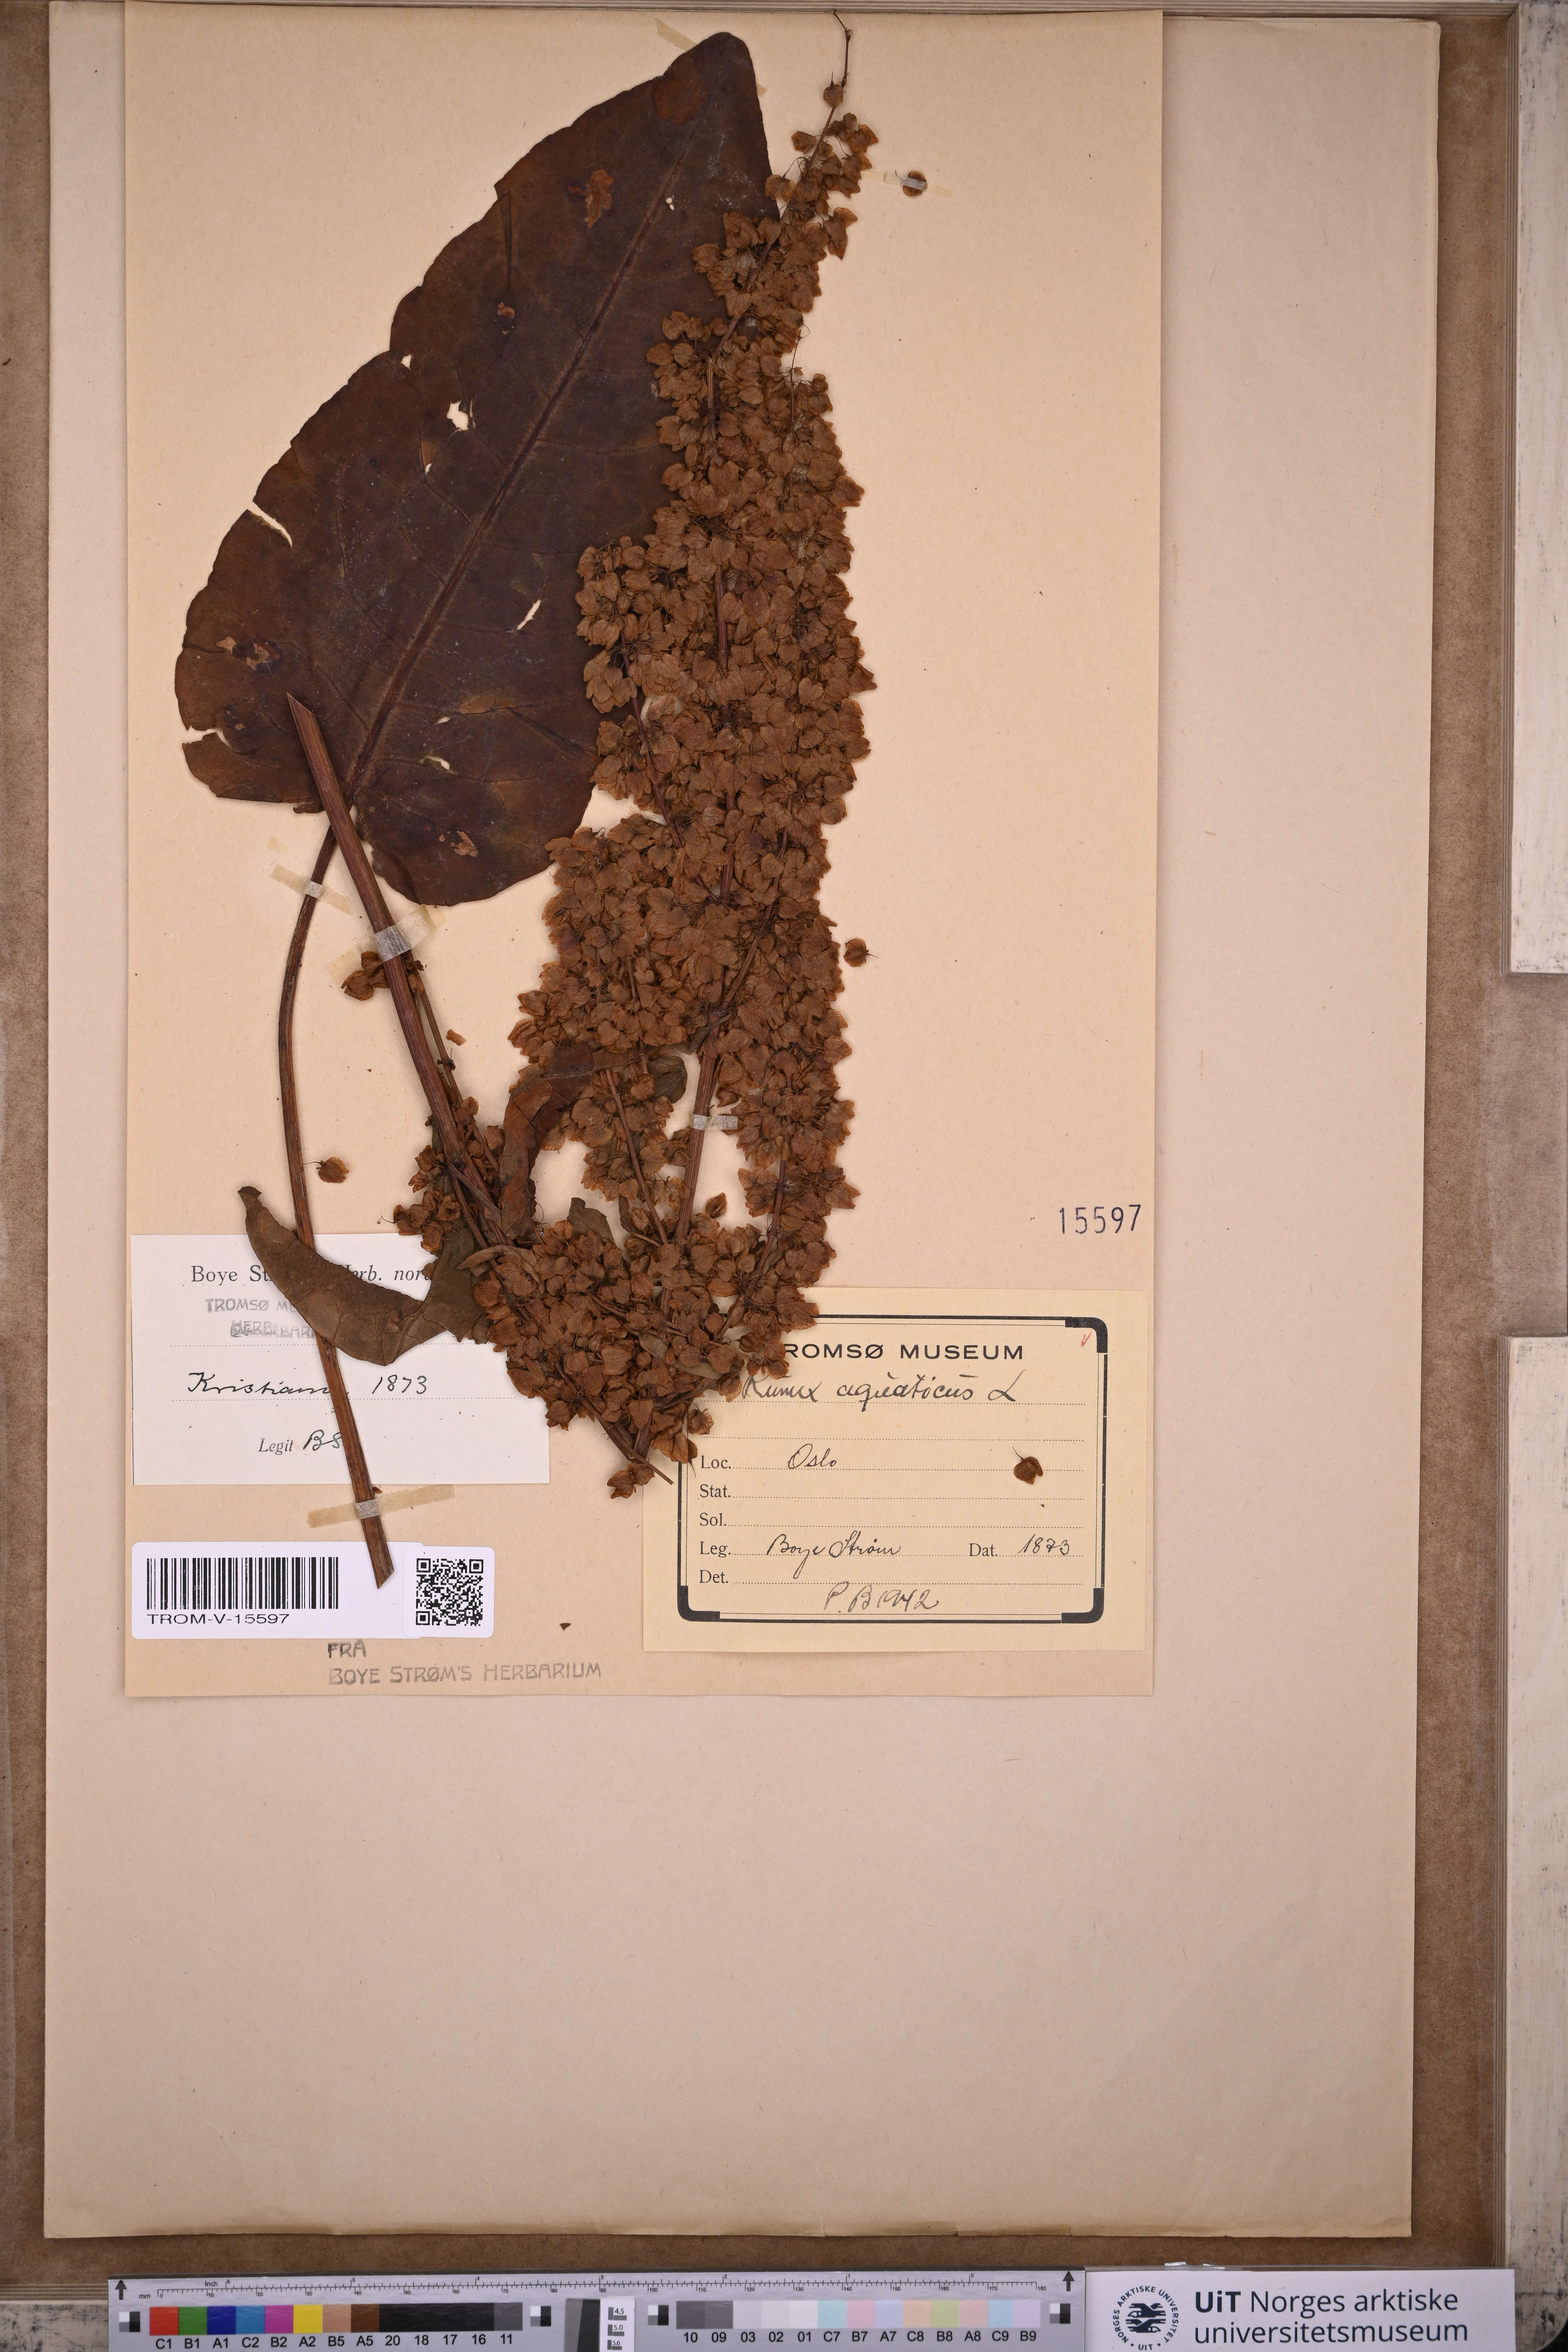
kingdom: Plantae
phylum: Tracheophyta
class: Magnoliopsida
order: Caryophyllales
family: Polygonaceae
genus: Rumex
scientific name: Rumex aquaticus
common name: Scottish dock
